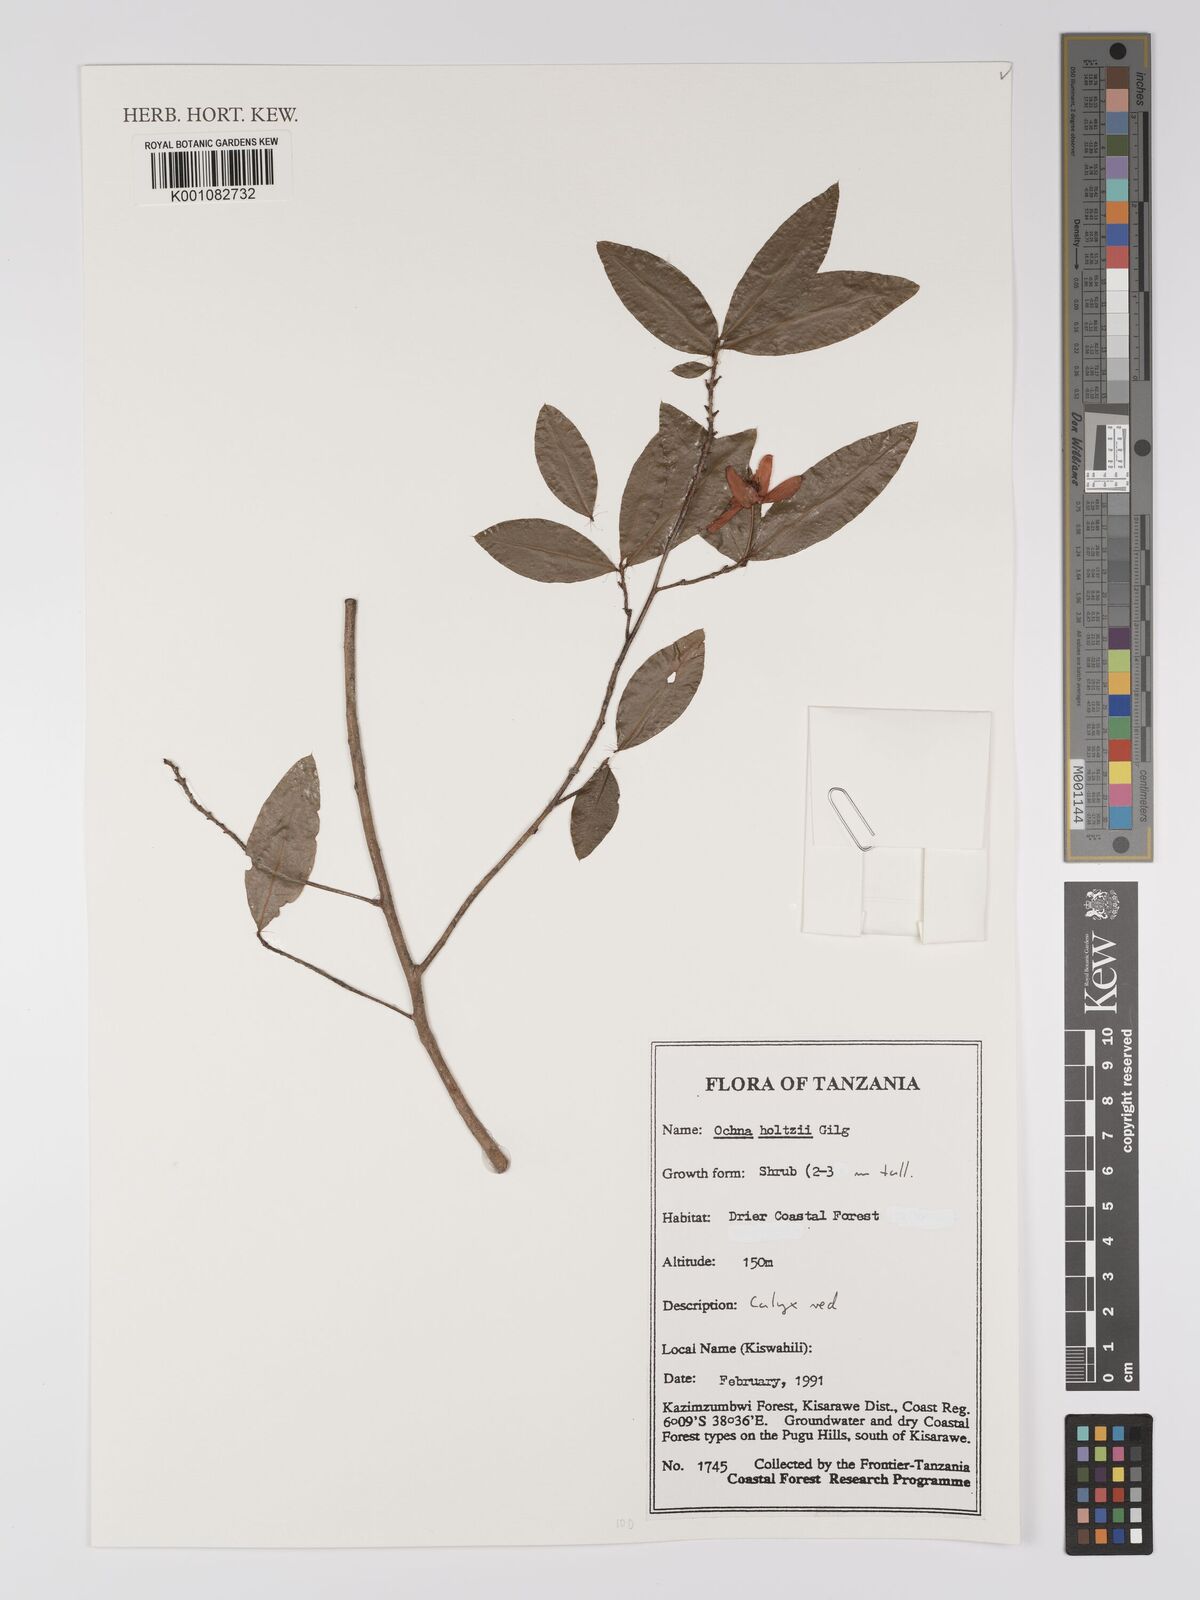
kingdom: Plantae
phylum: Tracheophyta
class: Magnoliopsida
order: Malpighiales
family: Ochnaceae
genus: Ochna
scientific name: Ochna holtzii
